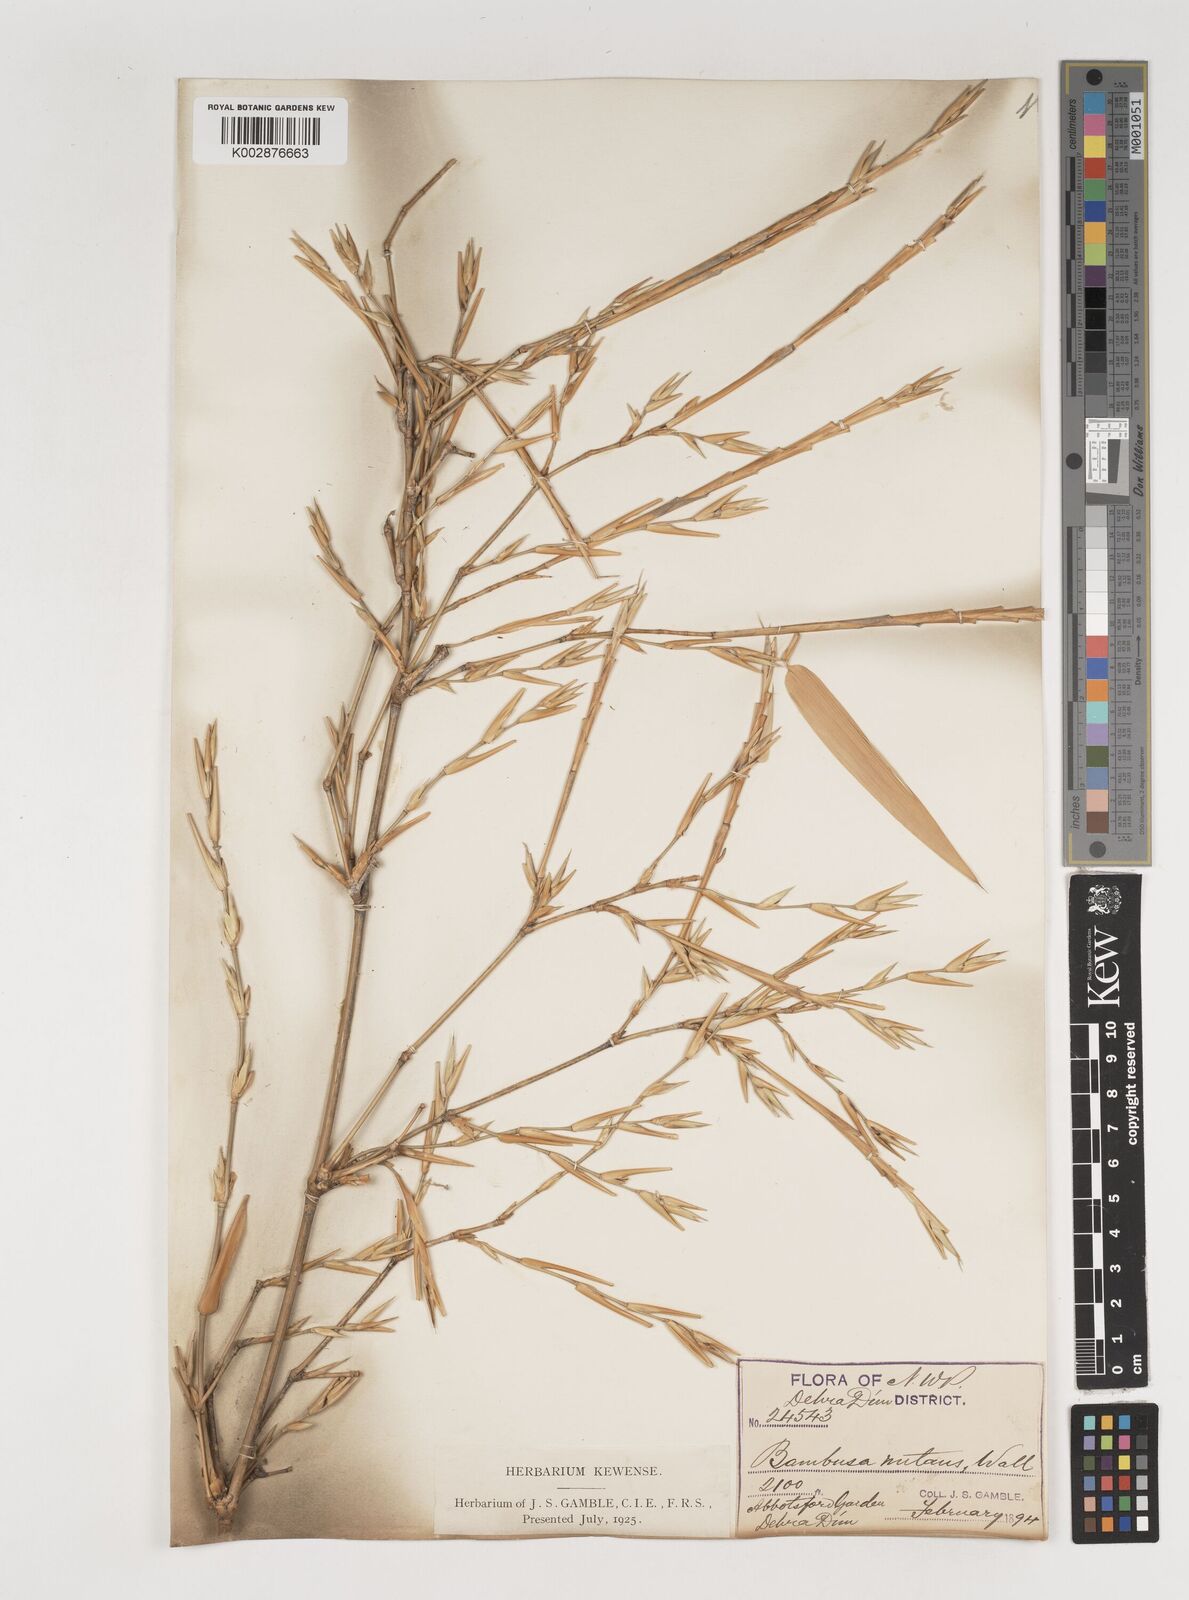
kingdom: Plantae
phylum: Tracheophyta
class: Liliopsida
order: Poales
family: Poaceae
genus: Bambusa
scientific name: Bambusa nutans
